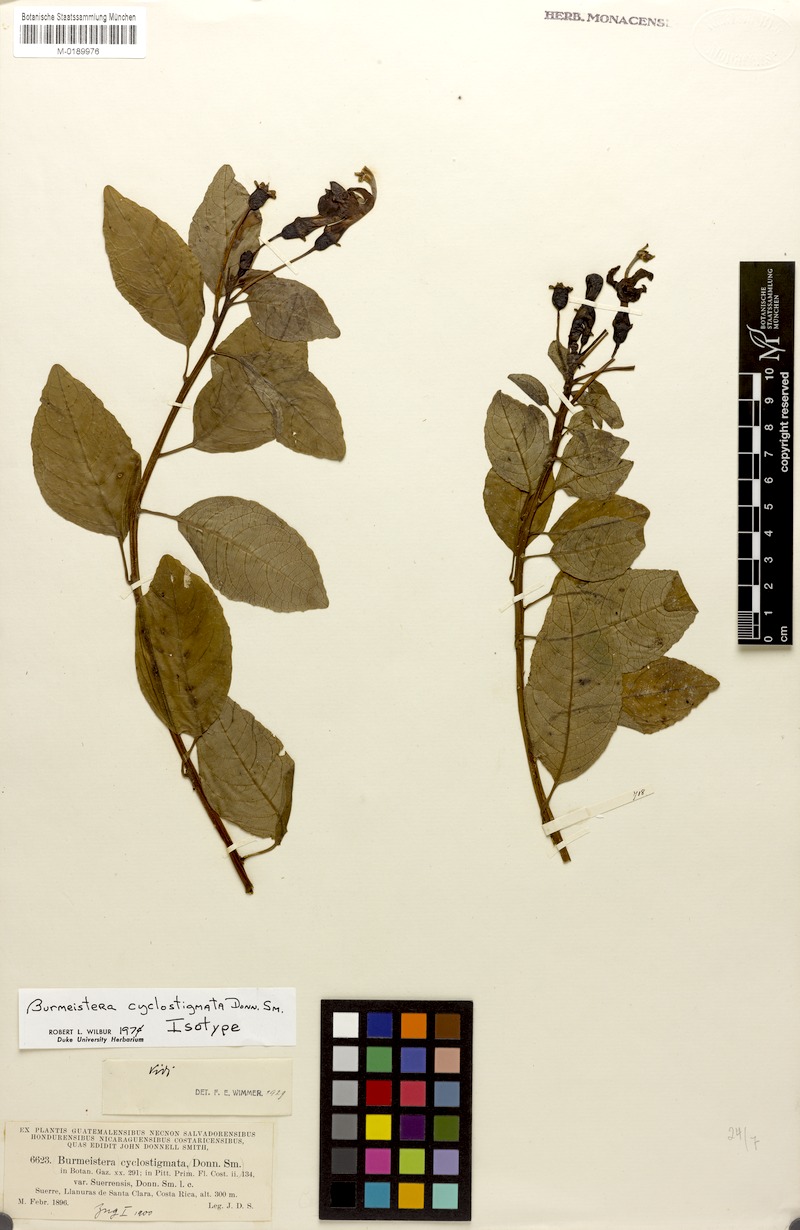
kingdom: Plantae
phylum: Tracheophyta
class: Magnoliopsida
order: Asterales
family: Campanulaceae
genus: Burmeistera
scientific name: Burmeistera cyclostigmata
